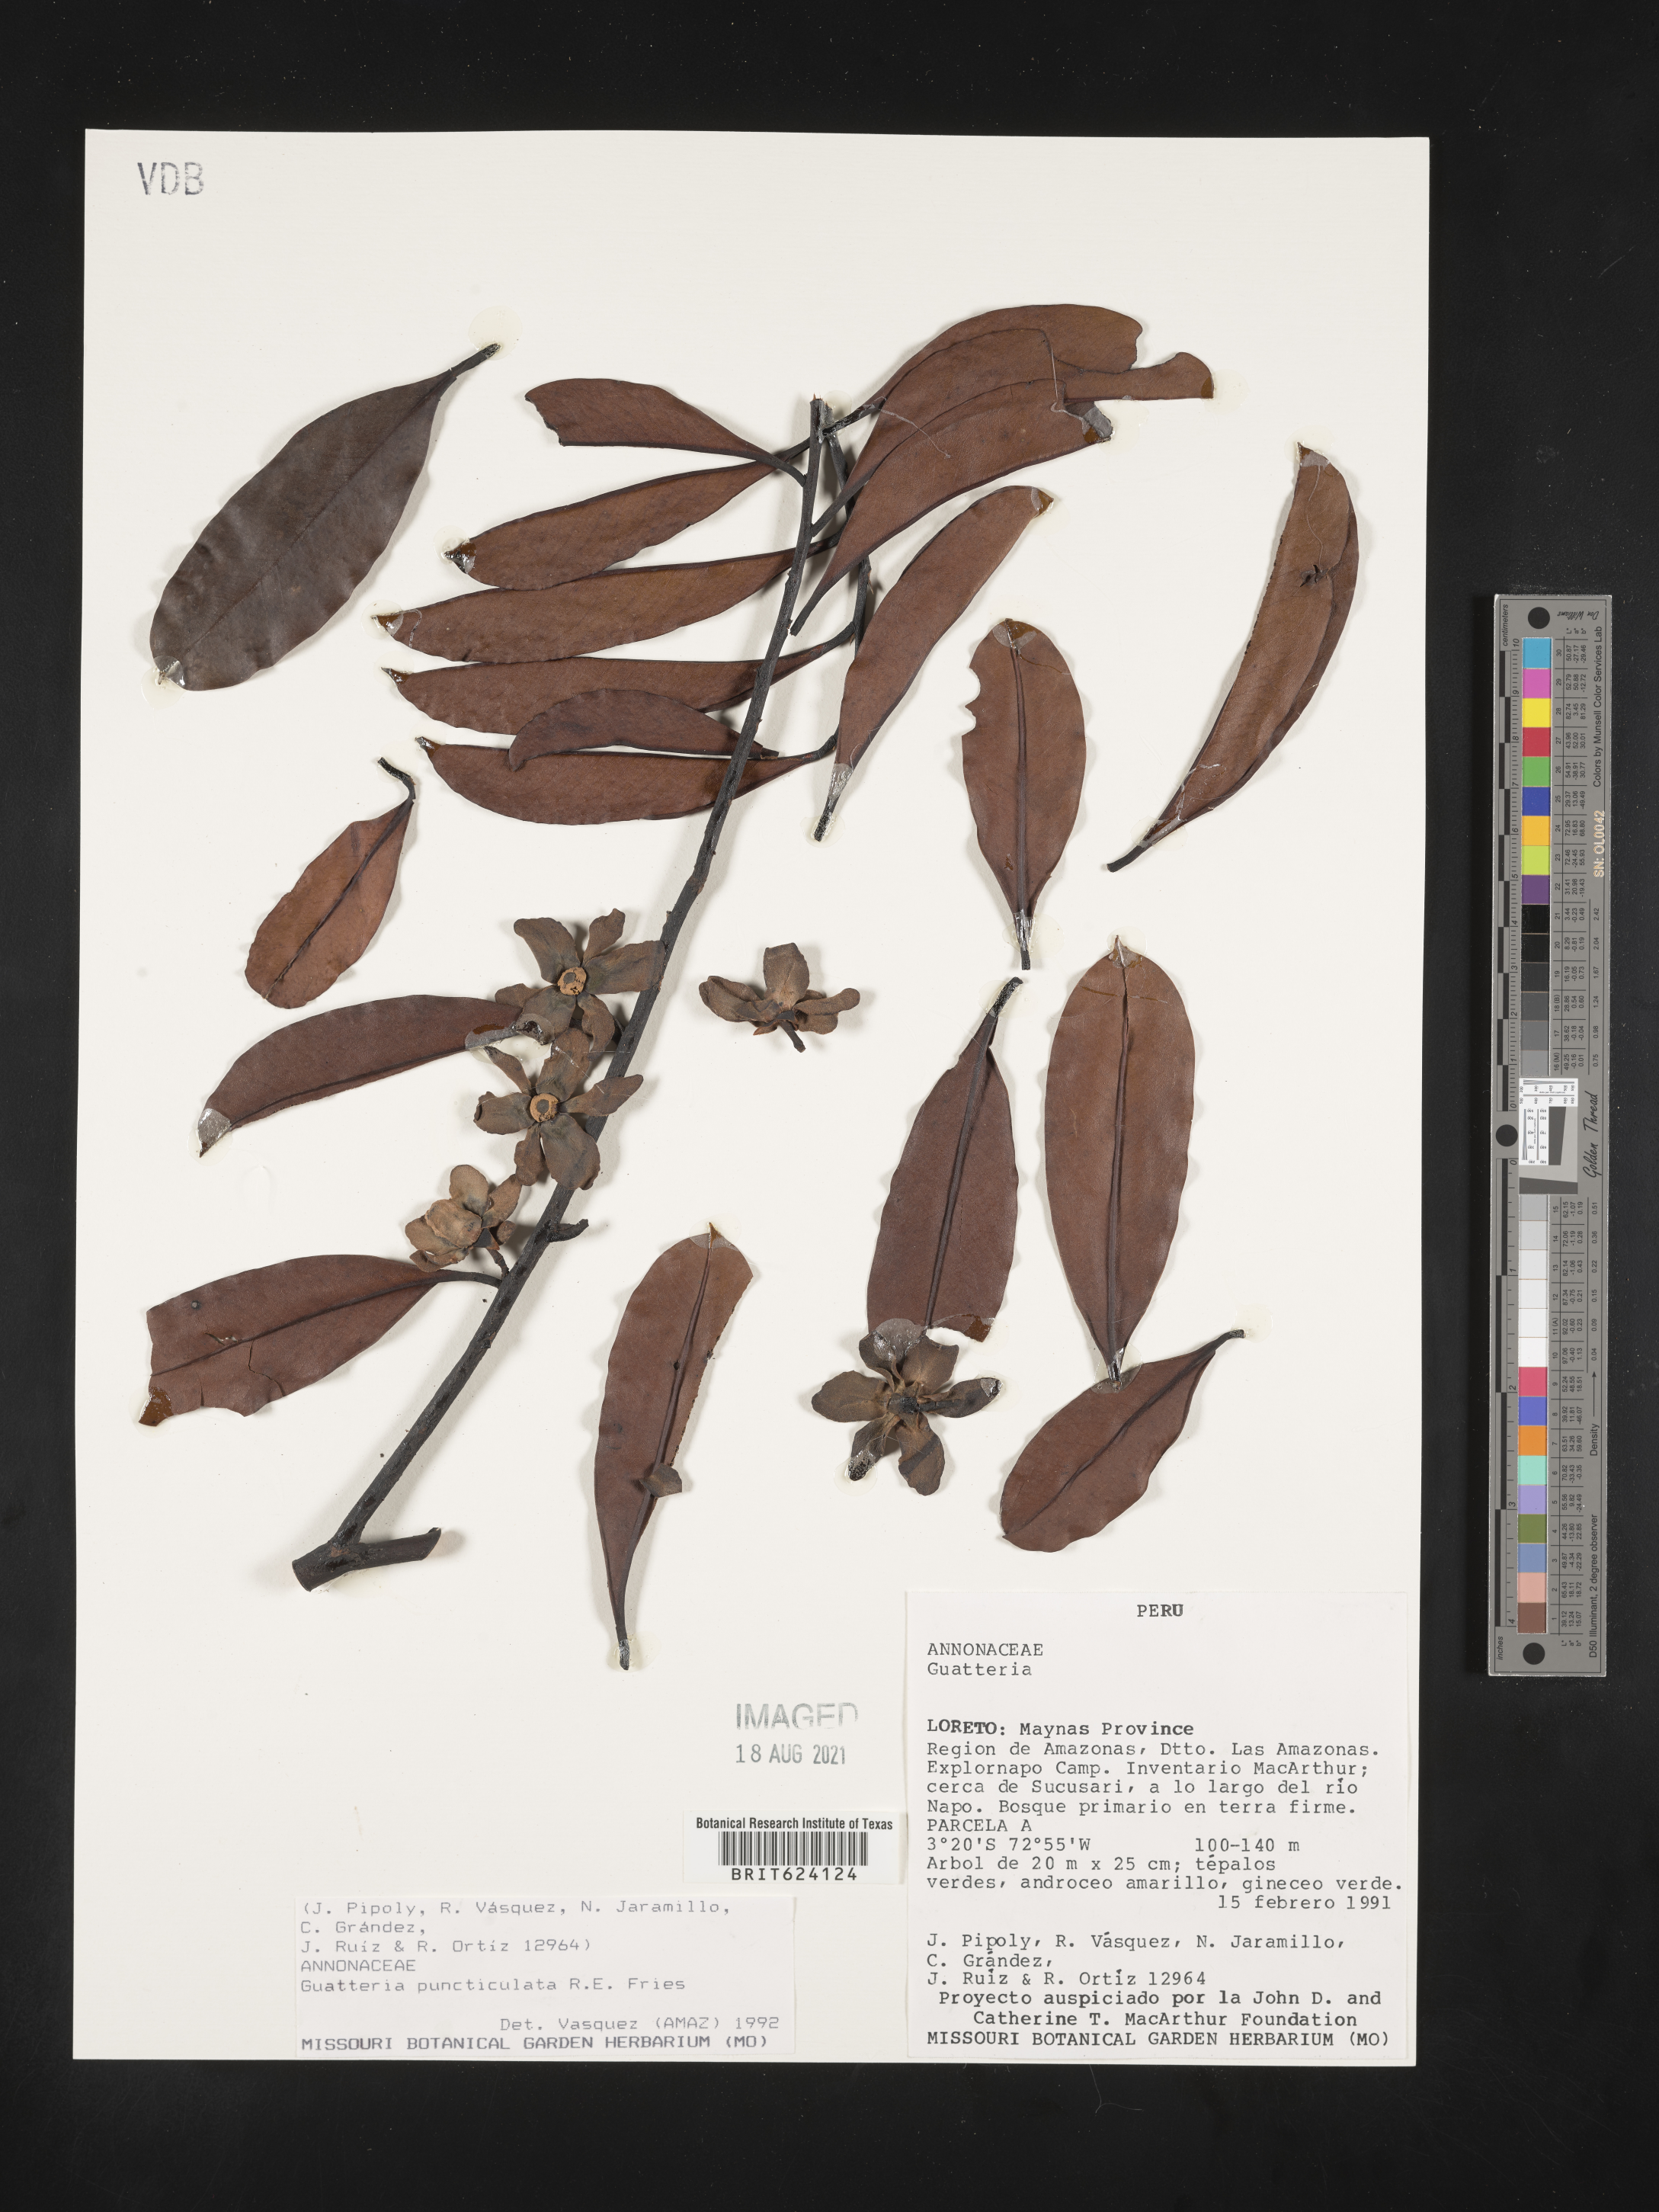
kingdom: Plantae
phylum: Tracheophyta
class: Magnoliopsida
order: Magnoliales
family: Annonaceae
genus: Guatteria
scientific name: Guatteria modesta
